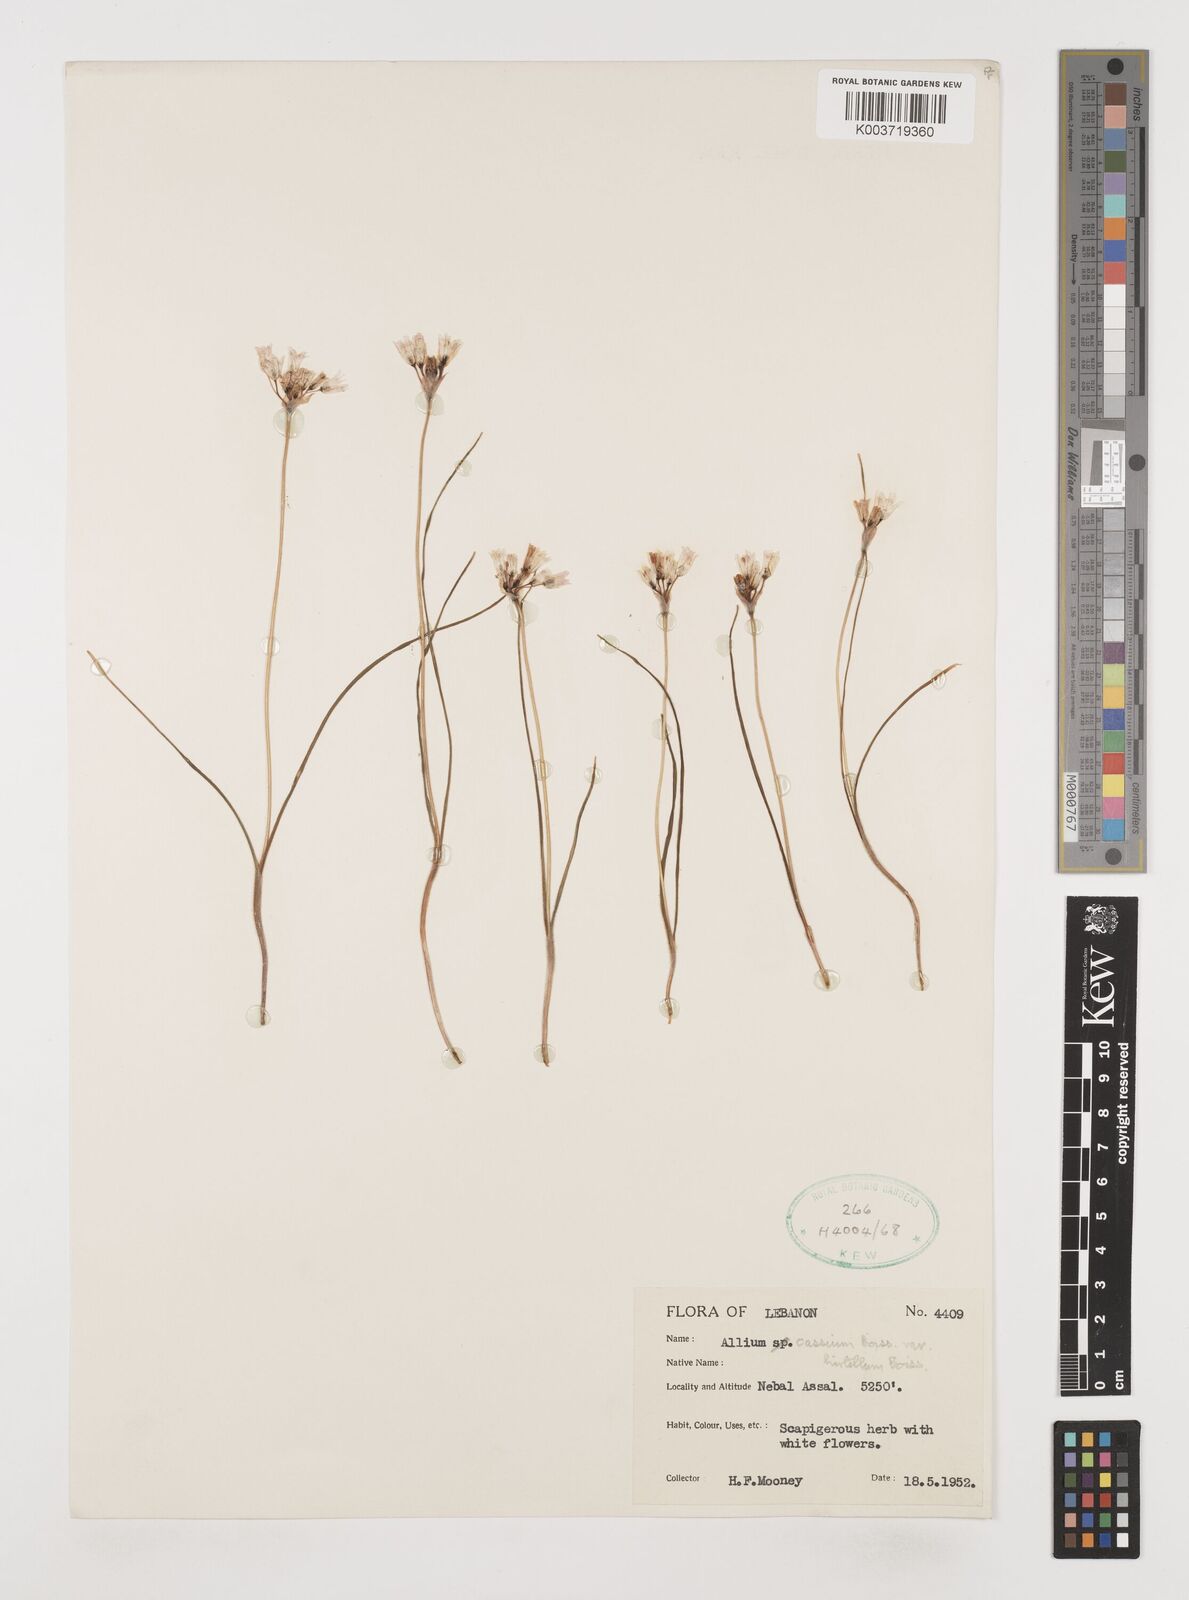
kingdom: Plantae
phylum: Tracheophyta
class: Liliopsida
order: Asparagales
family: Amaryllidaceae
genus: Allium
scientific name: Allium cassium
